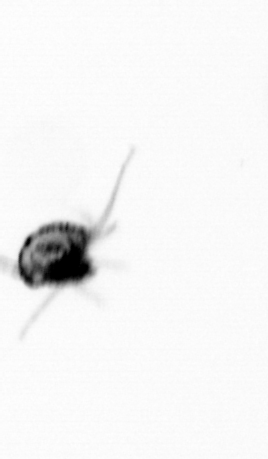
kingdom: Animalia
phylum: Arthropoda
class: Copepoda
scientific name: Copepoda
